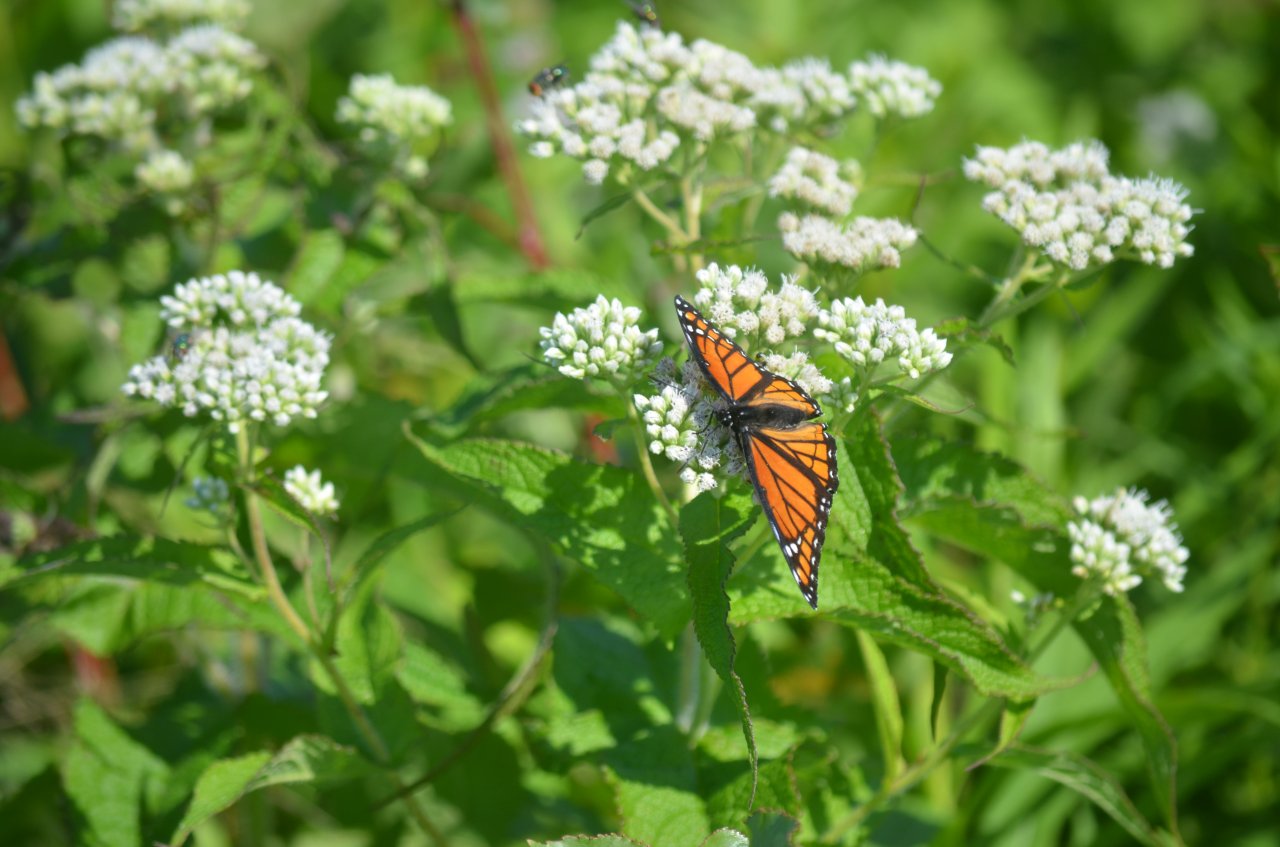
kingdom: Animalia
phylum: Arthropoda
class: Insecta
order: Lepidoptera
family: Nymphalidae
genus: Limenitis
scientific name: Limenitis archippus
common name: Viceroy
